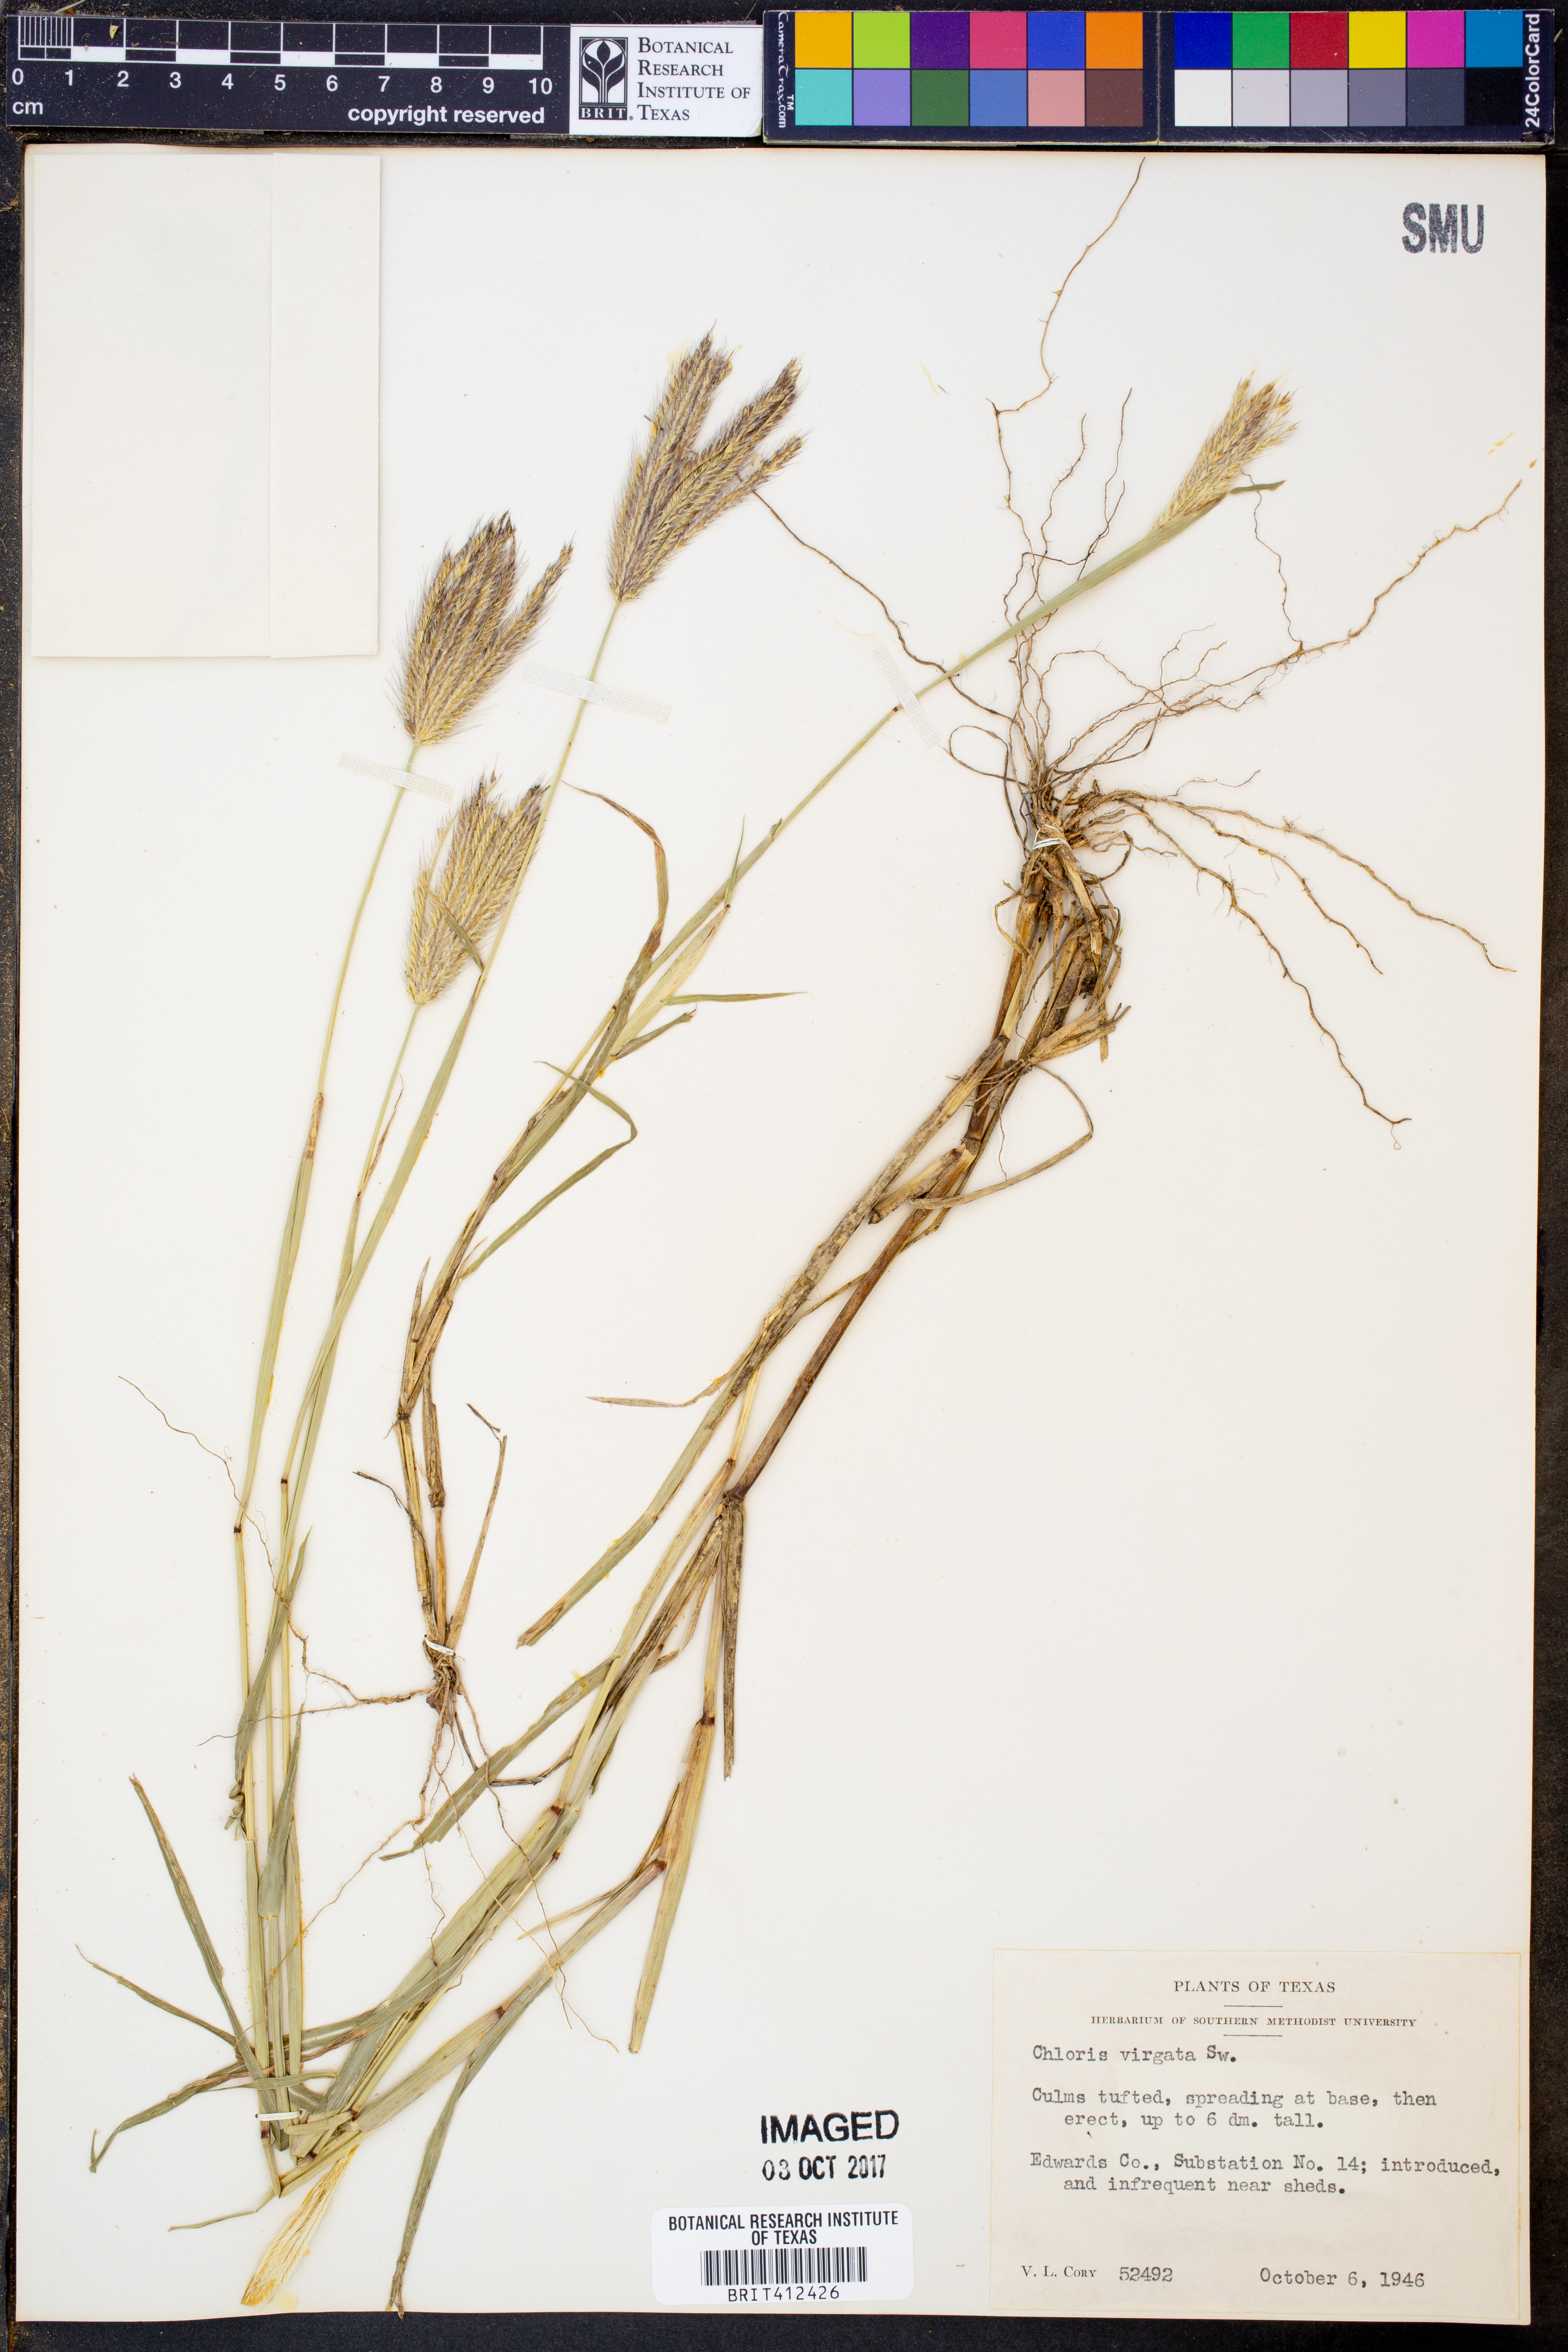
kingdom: Plantae
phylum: Tracheophyta
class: Liliopsida
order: Poales
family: Poaceae
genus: Chloris
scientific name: Chloris virgata
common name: Feathery rhodes-grass
